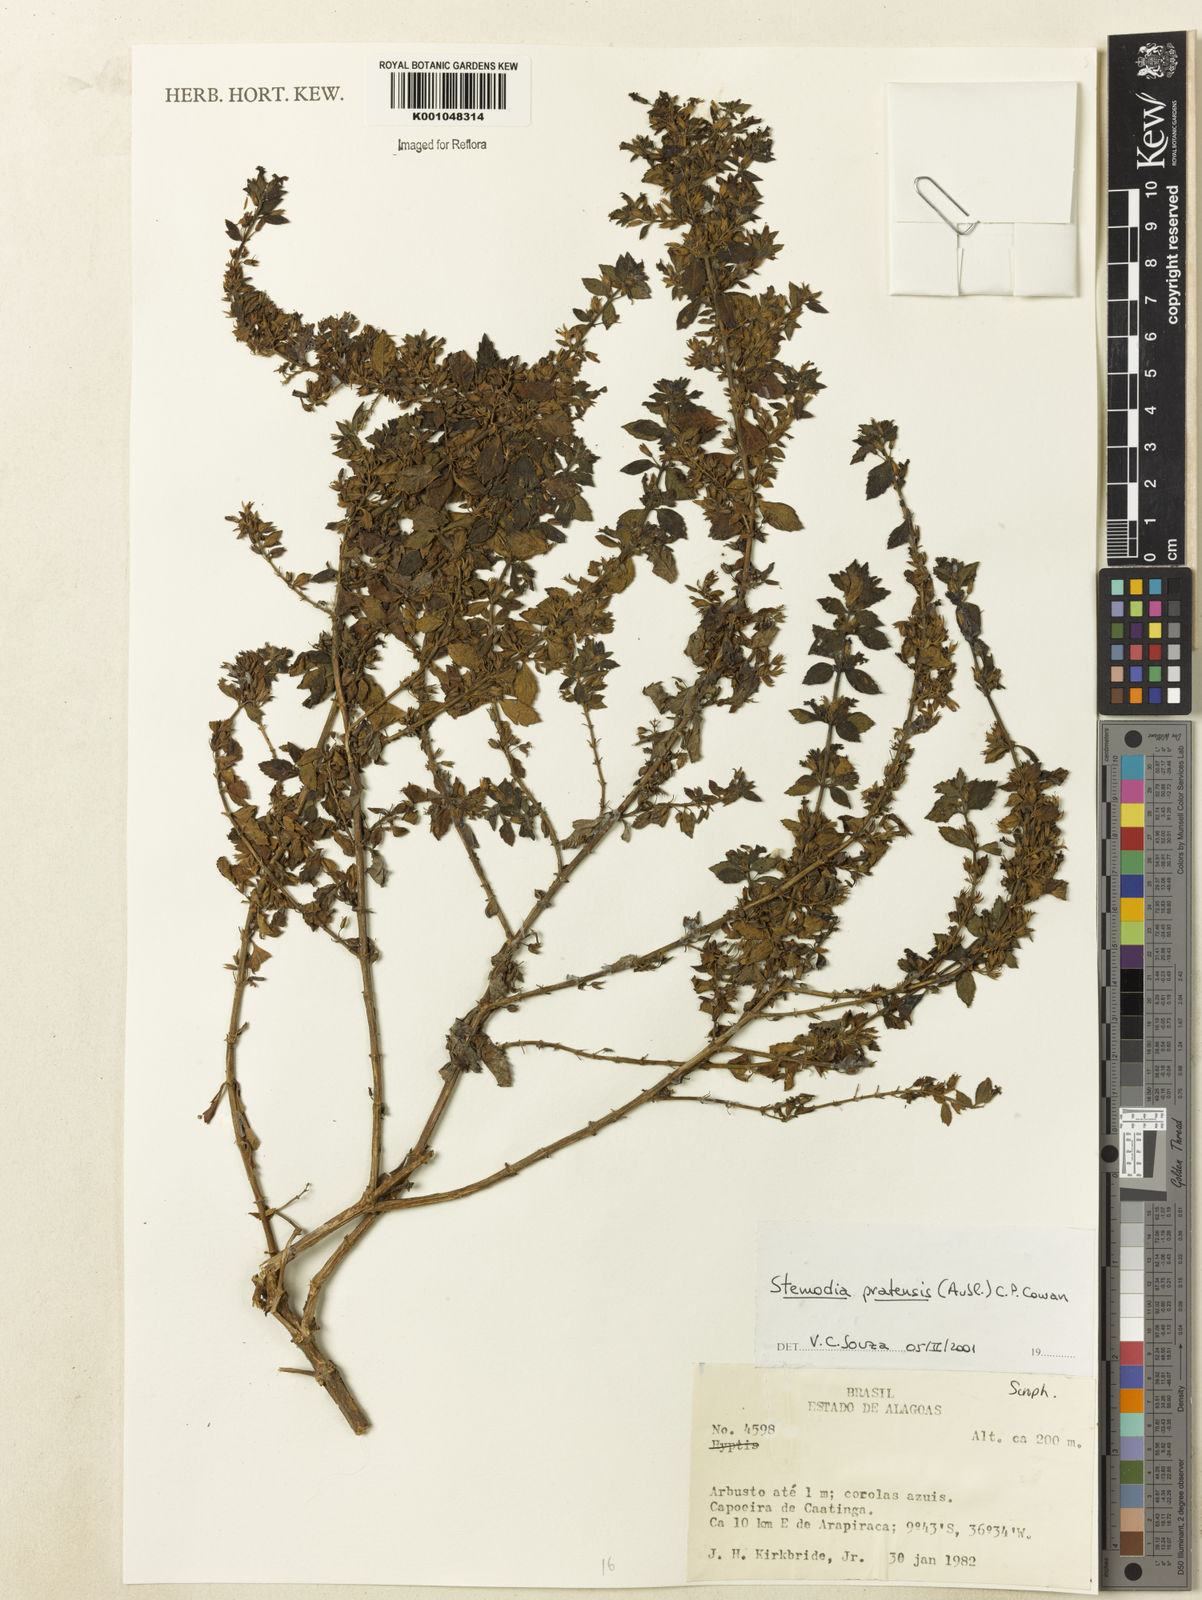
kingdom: Plantae
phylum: Tracheophyta
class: Magnoliopsida
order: Lamiales
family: Plantaginaceae
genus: Stemodia
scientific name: Stemodia foliosa
